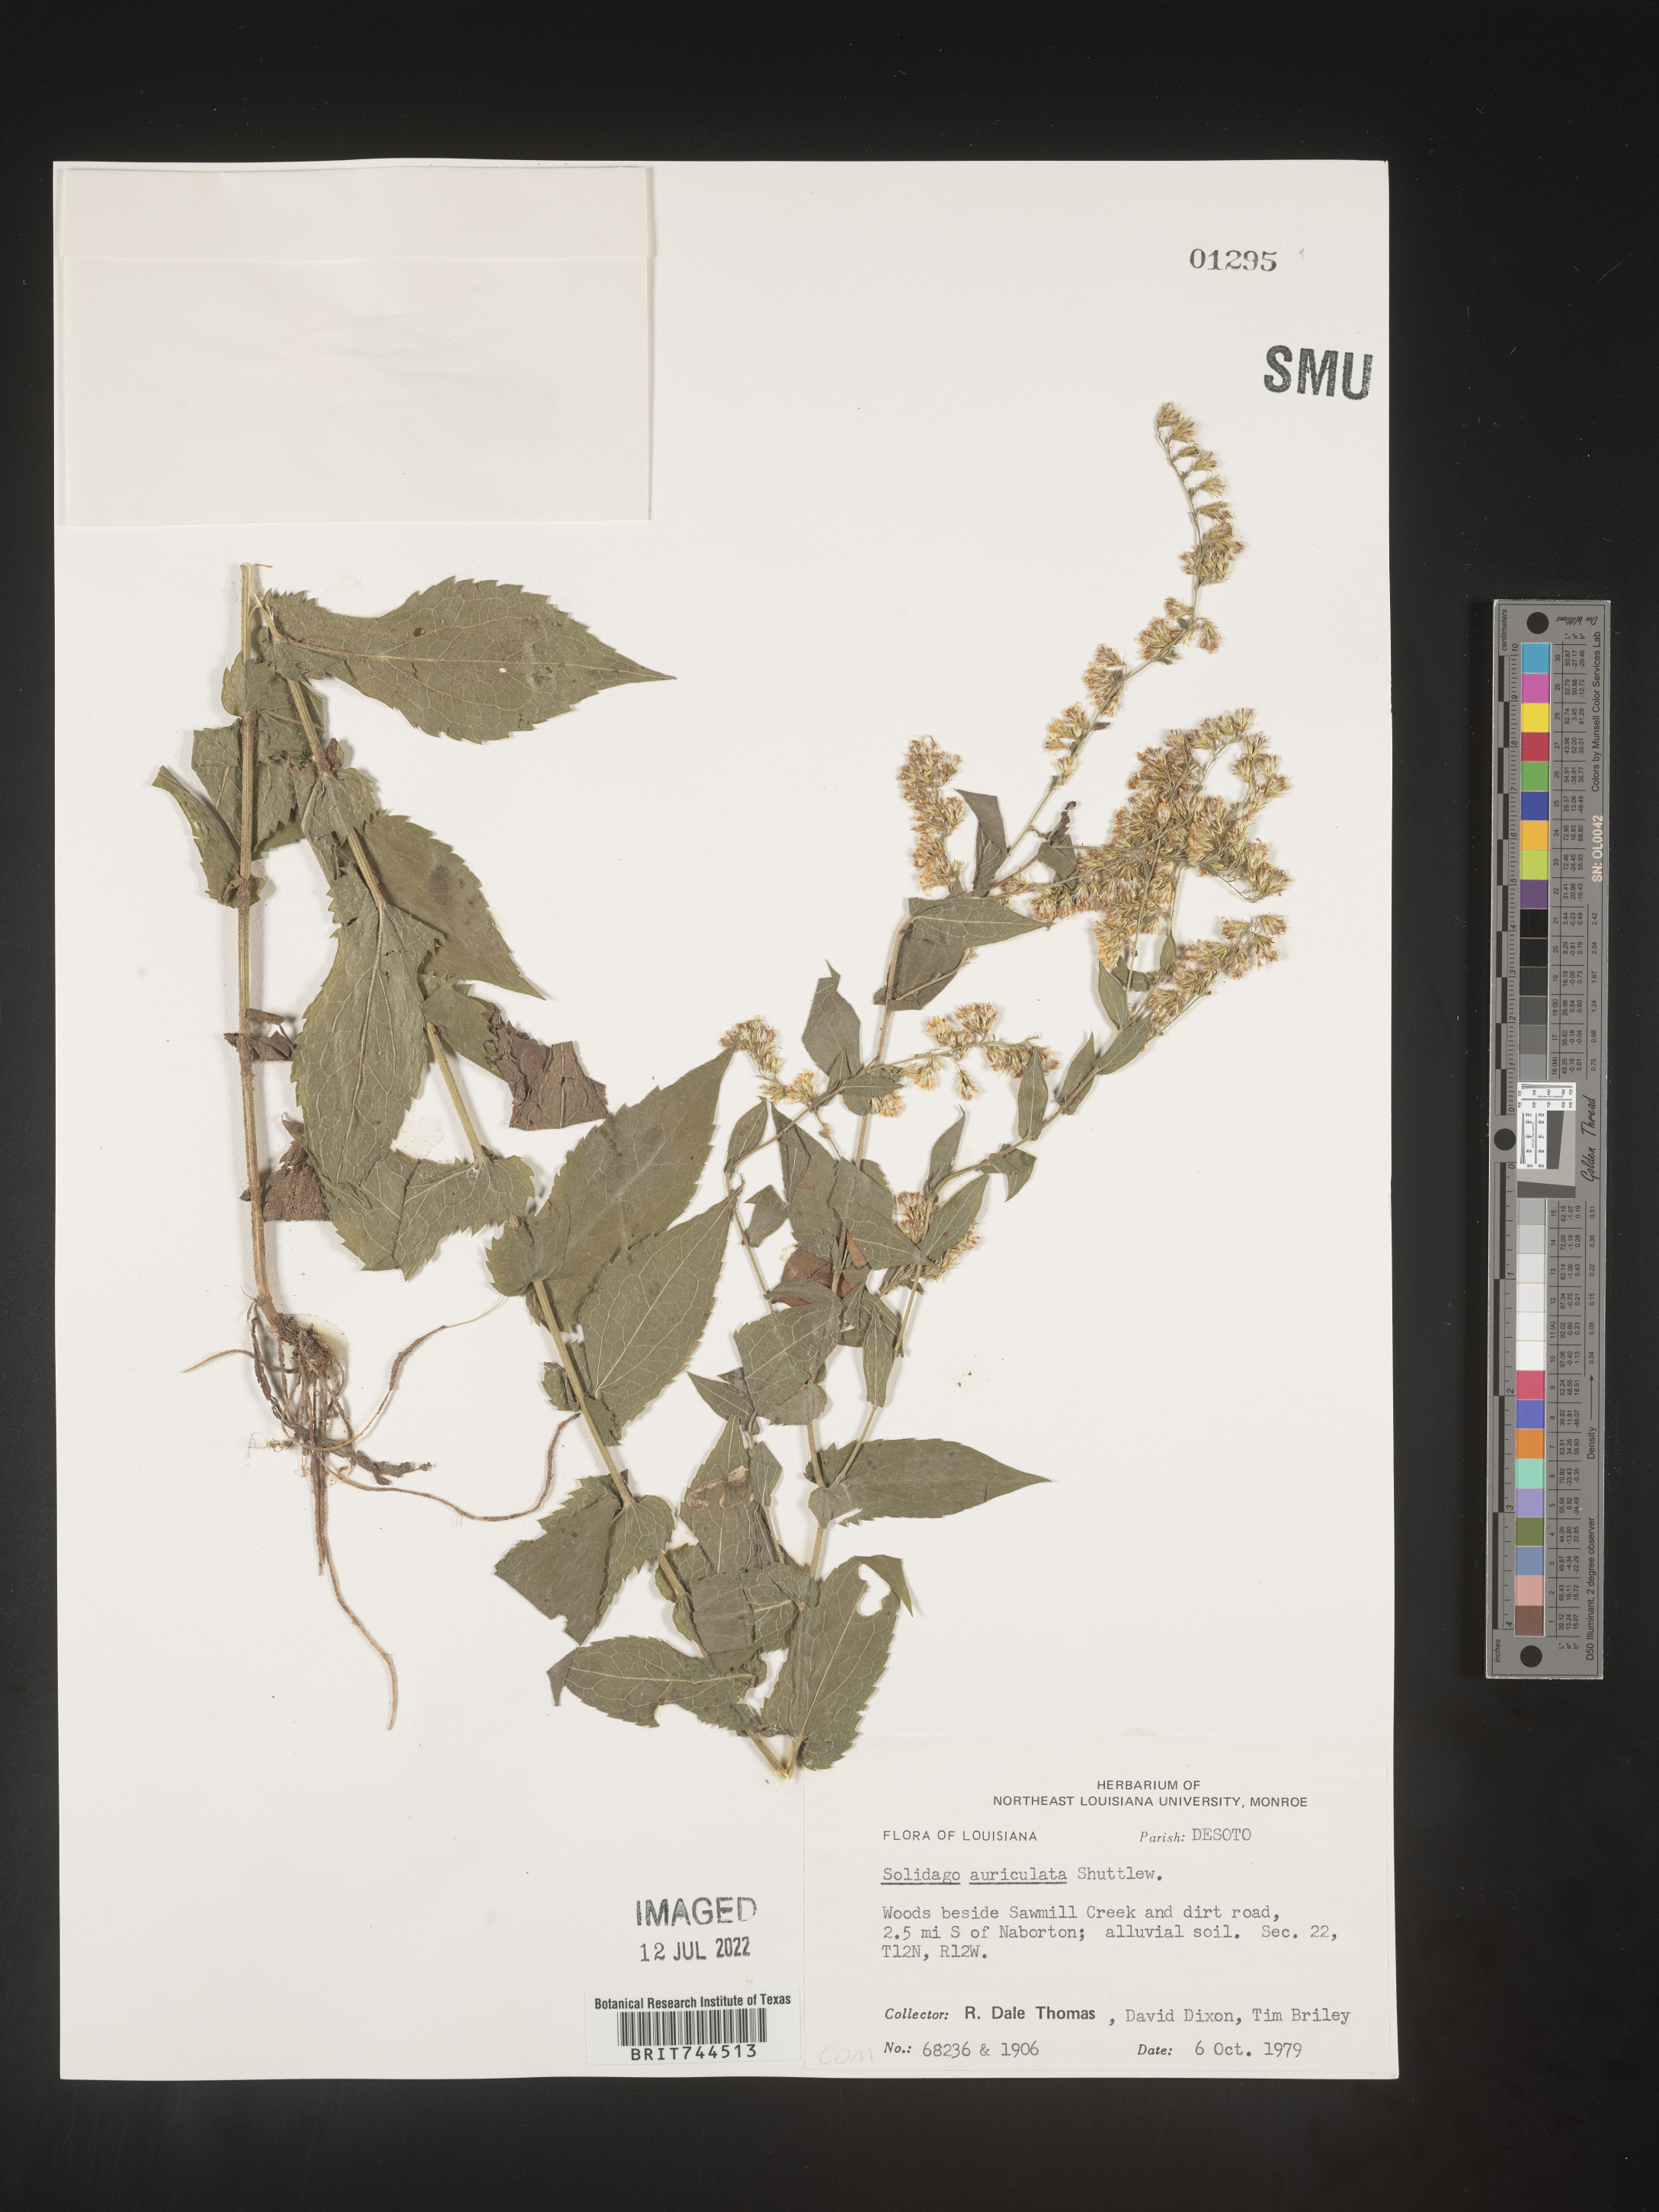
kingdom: Plantae
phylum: Tracheophyta
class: Magnoliopsida
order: Asterales
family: Asteraceae
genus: Solidago
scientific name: Solidago auriculata
